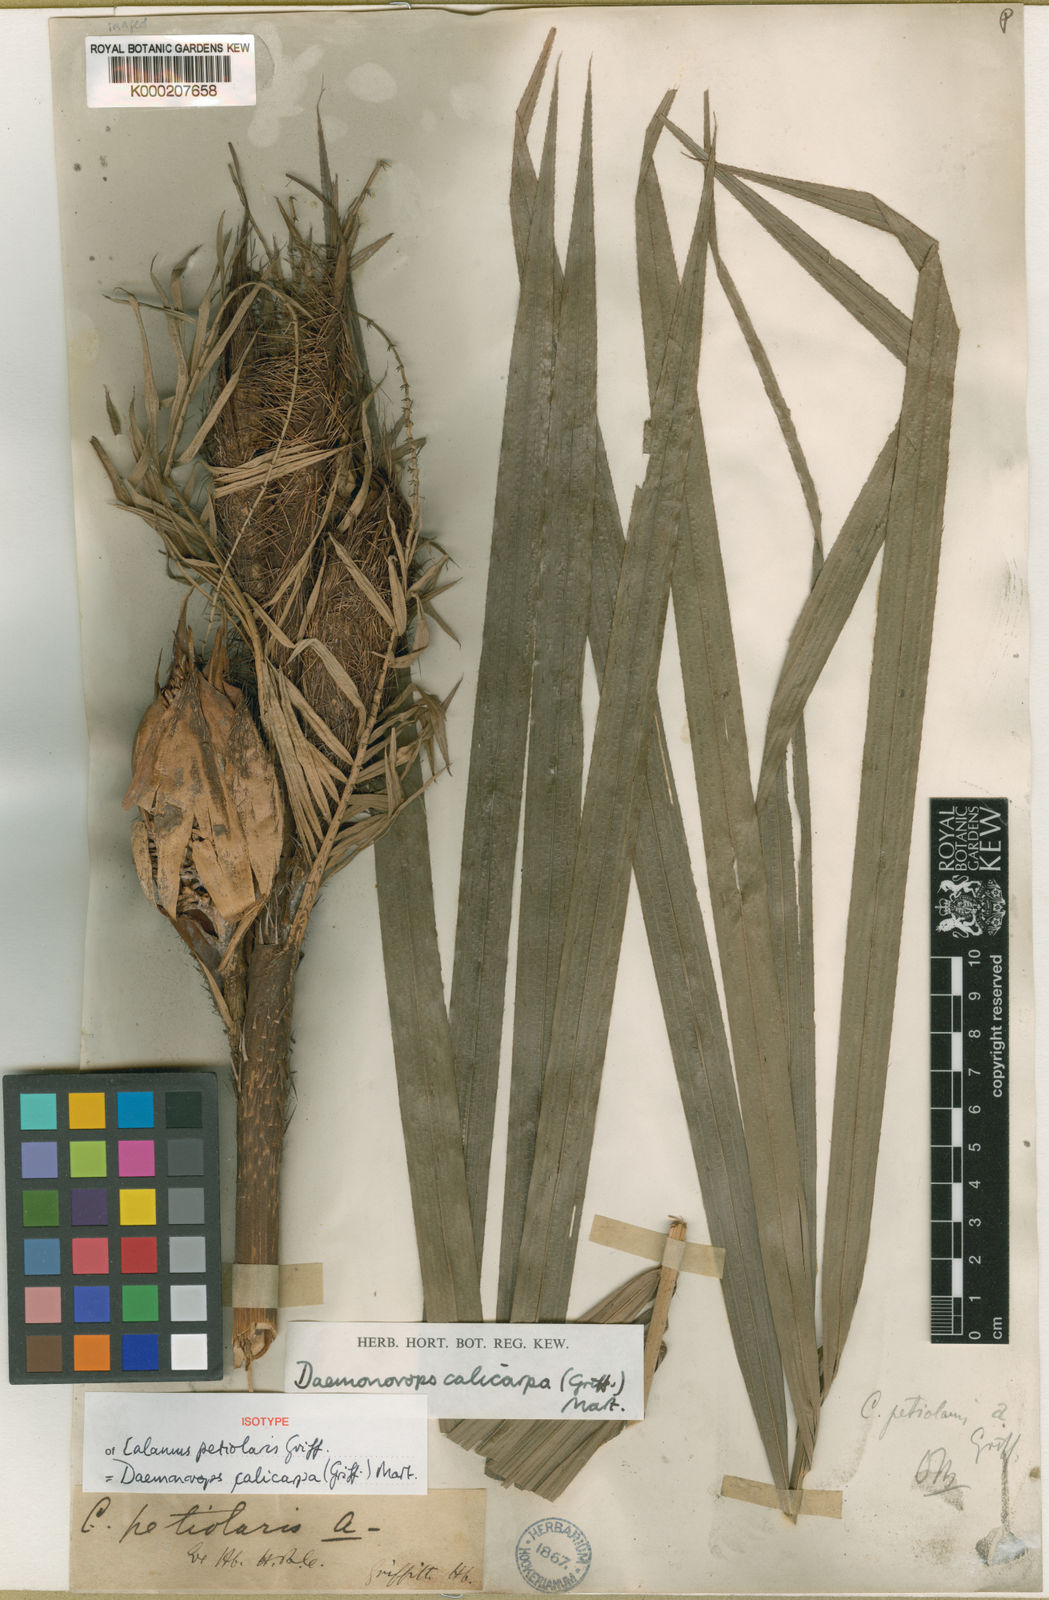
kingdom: Plantae
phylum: Tracheophyta
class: Liliopsida
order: Arecales
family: Arecaceae
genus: Calamus
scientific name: Calamus calicarpus
